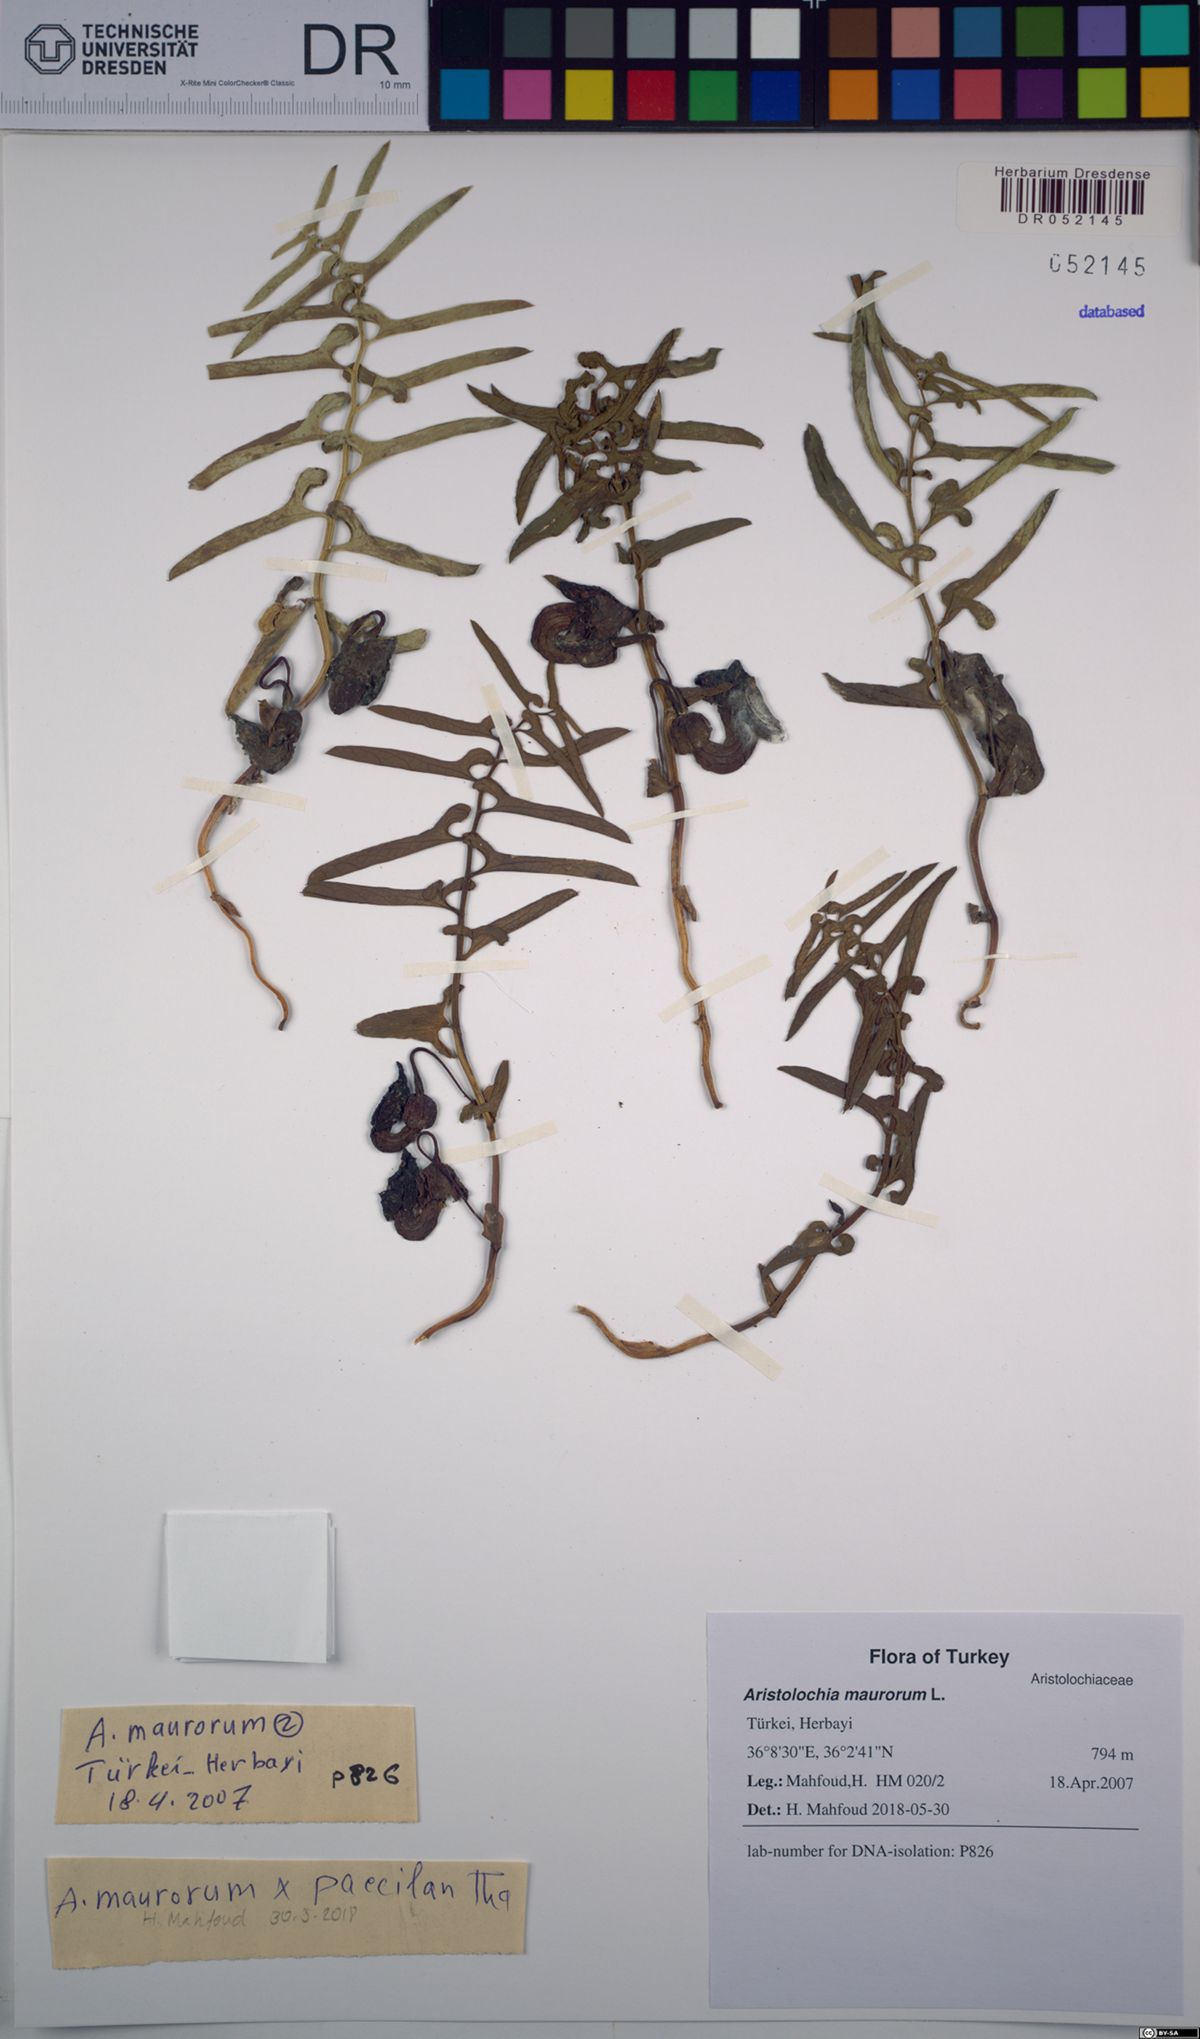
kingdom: Plantae
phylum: Tracheophyta
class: Magnoliopsida
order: Piperales
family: Aristolochiaceae
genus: Aristolochia
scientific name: Aristolochia maurorum
